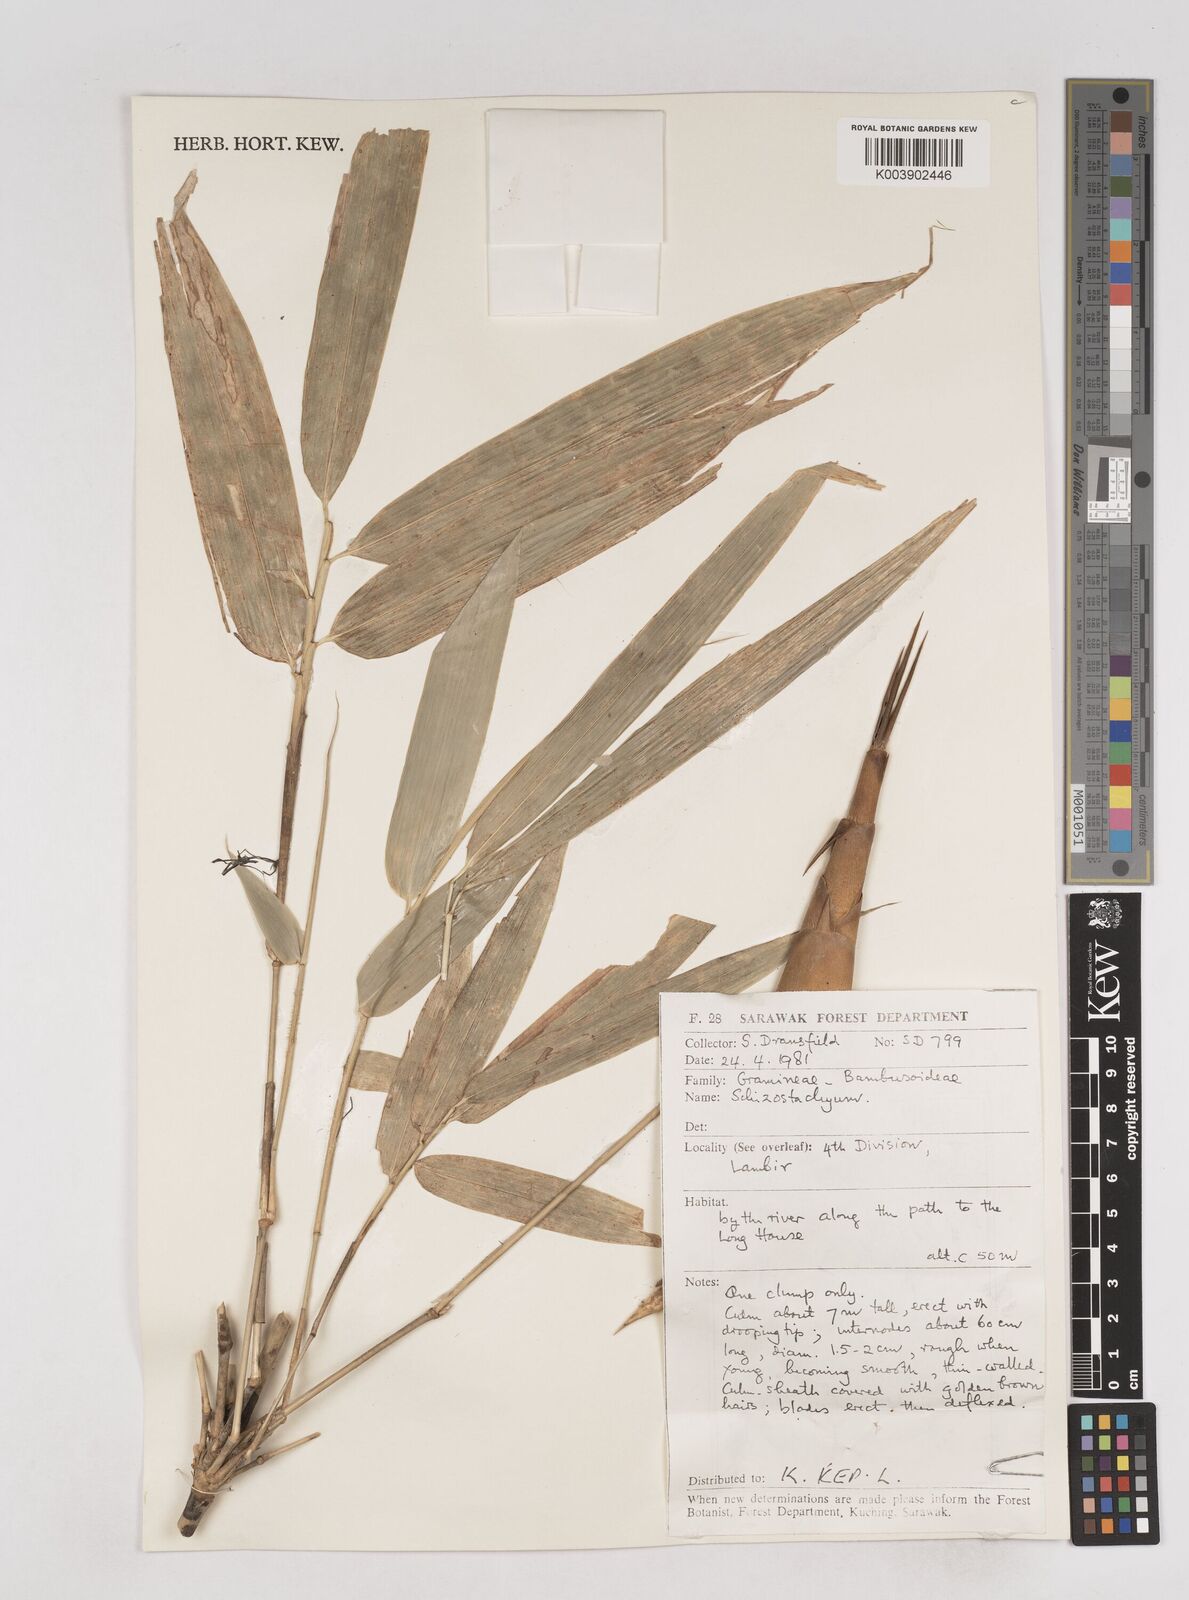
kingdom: Plantae
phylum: Tracheophyta
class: Liliopsida
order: Poales
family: Poaceae
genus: Schizostachyum
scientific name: Schizostachyum
